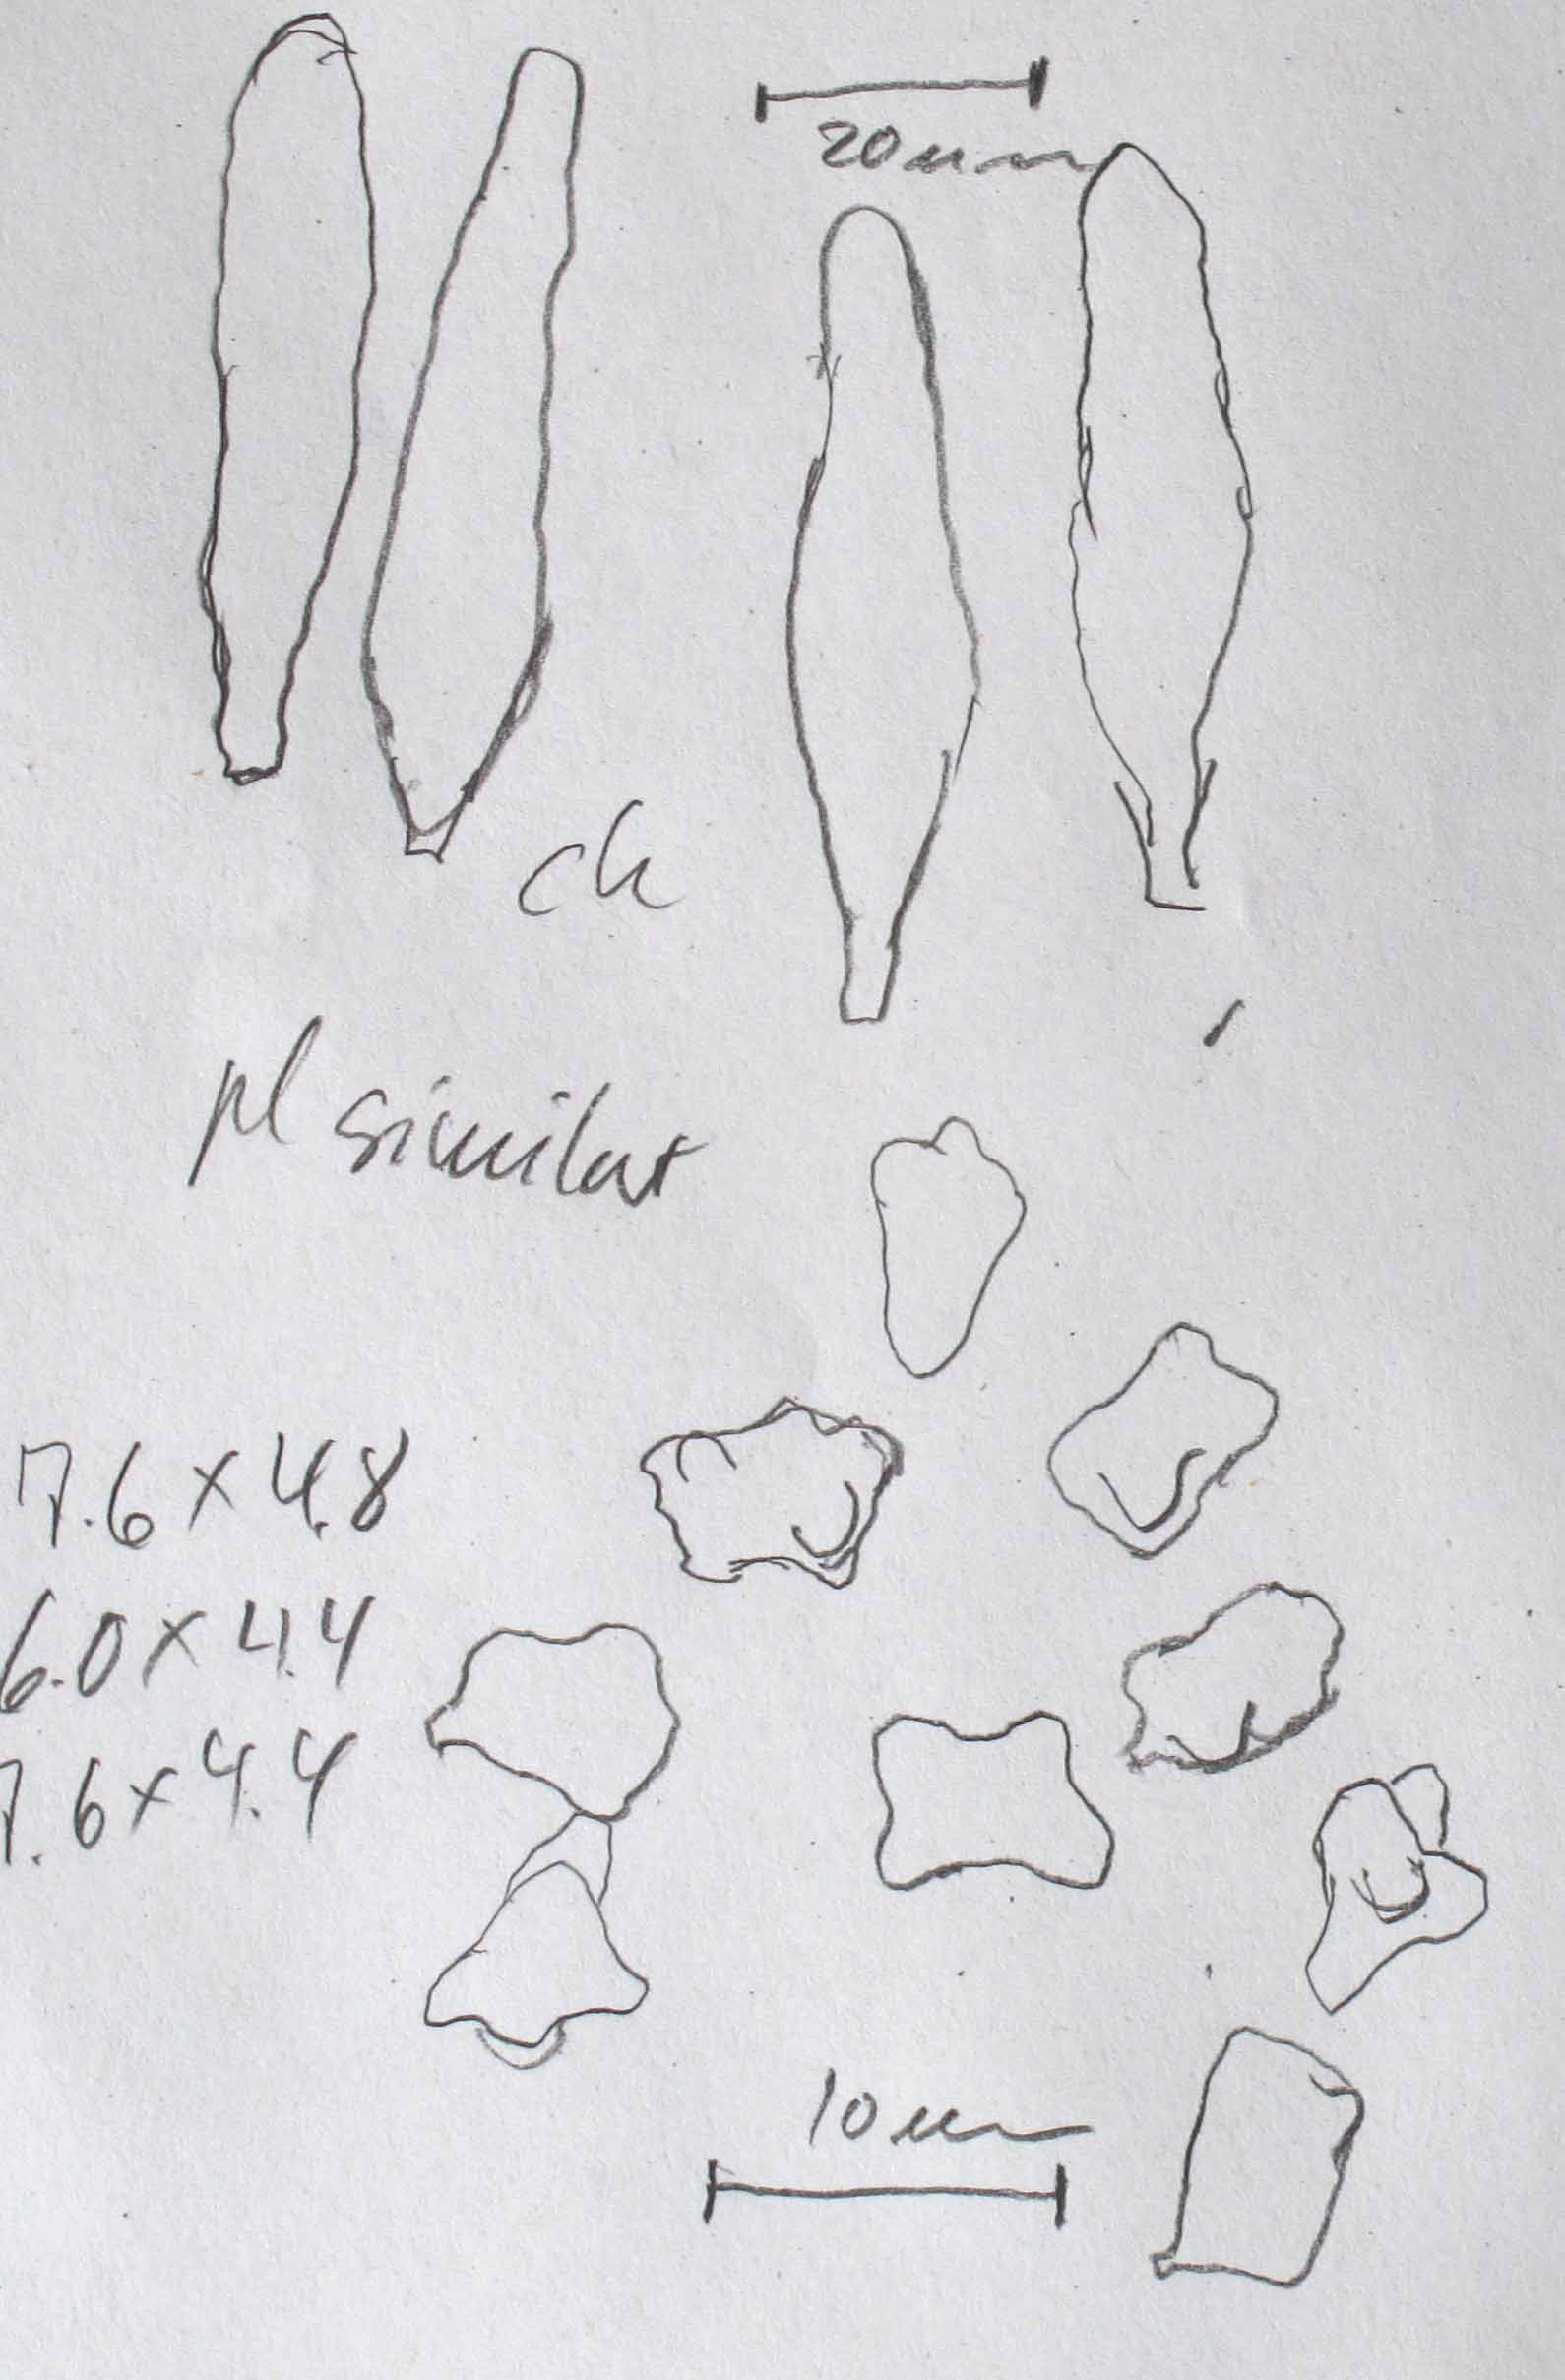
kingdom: Fungi
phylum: Basidiomycota
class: Agaricomycetes
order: Agaricales
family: Inocybaceae
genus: Inocybe
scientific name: Inocybe soluta
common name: lysbladet trævlhat
